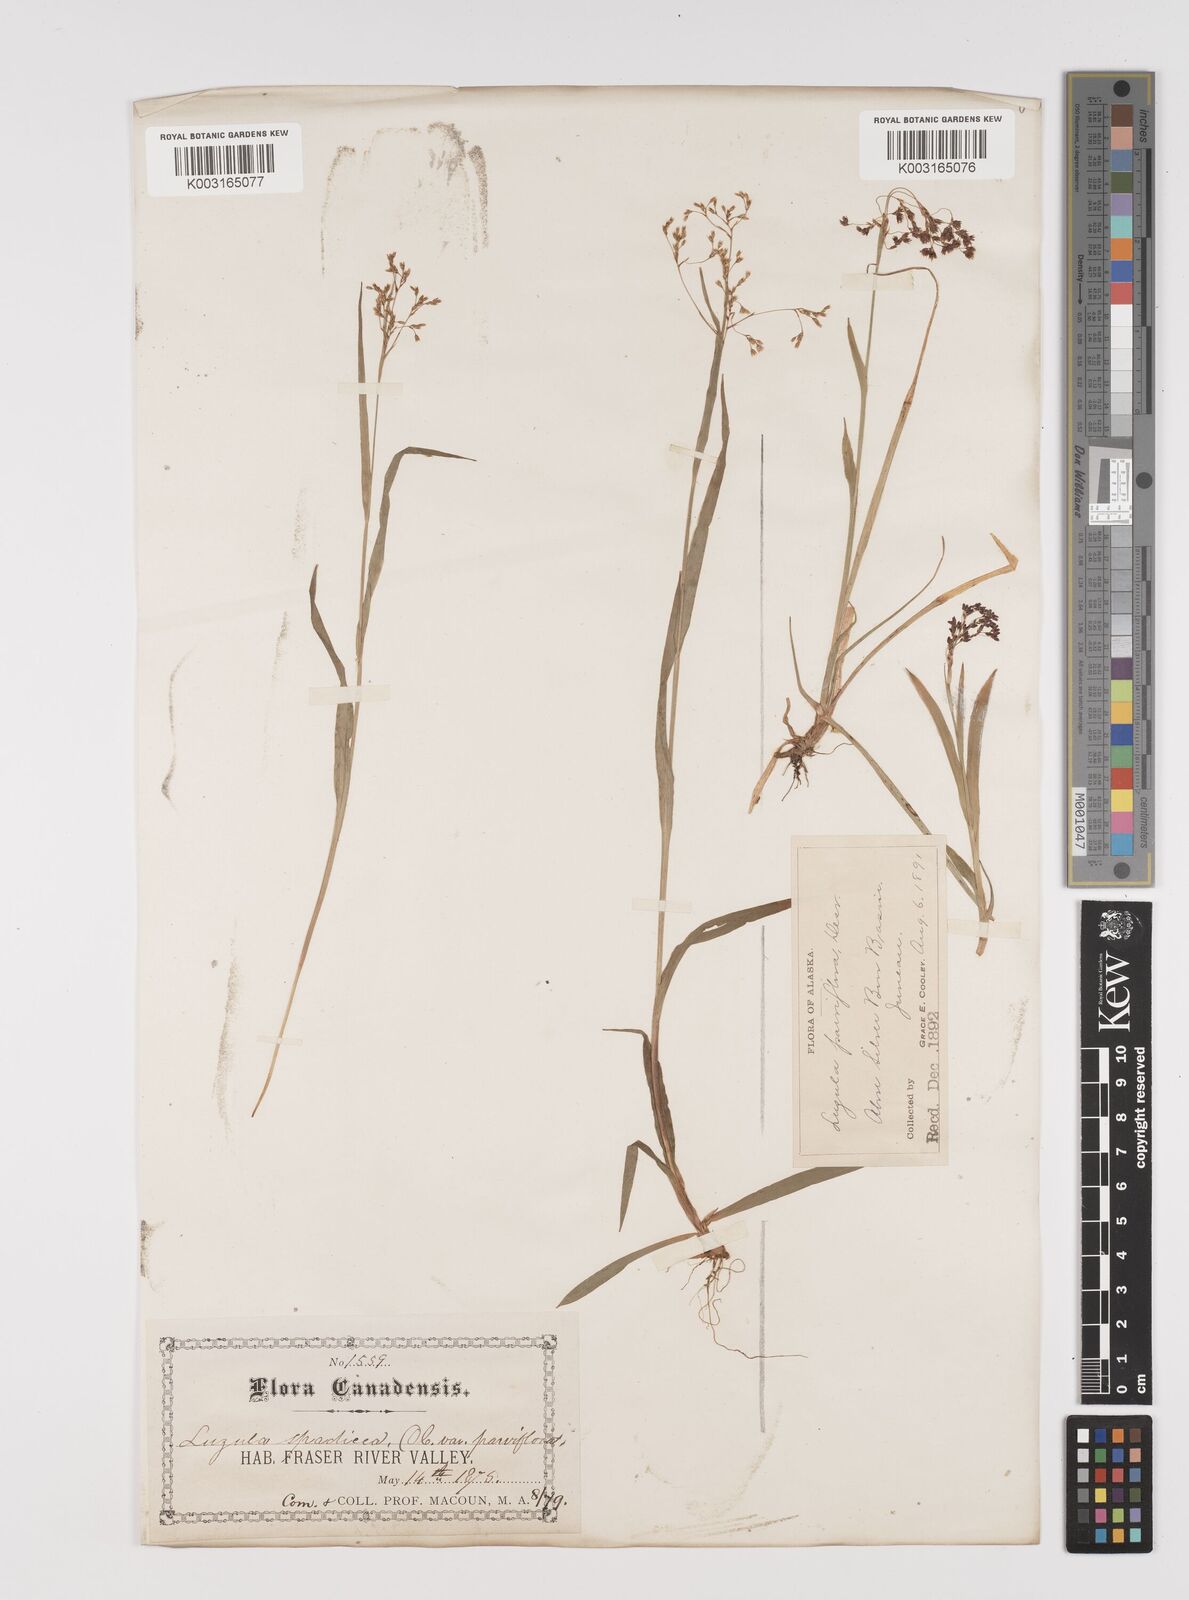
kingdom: Plantae
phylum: Tracheophyta
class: Liliopsida
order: Poales
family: Juncaceae
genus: Luzula
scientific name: Luzula alpinopilosa
